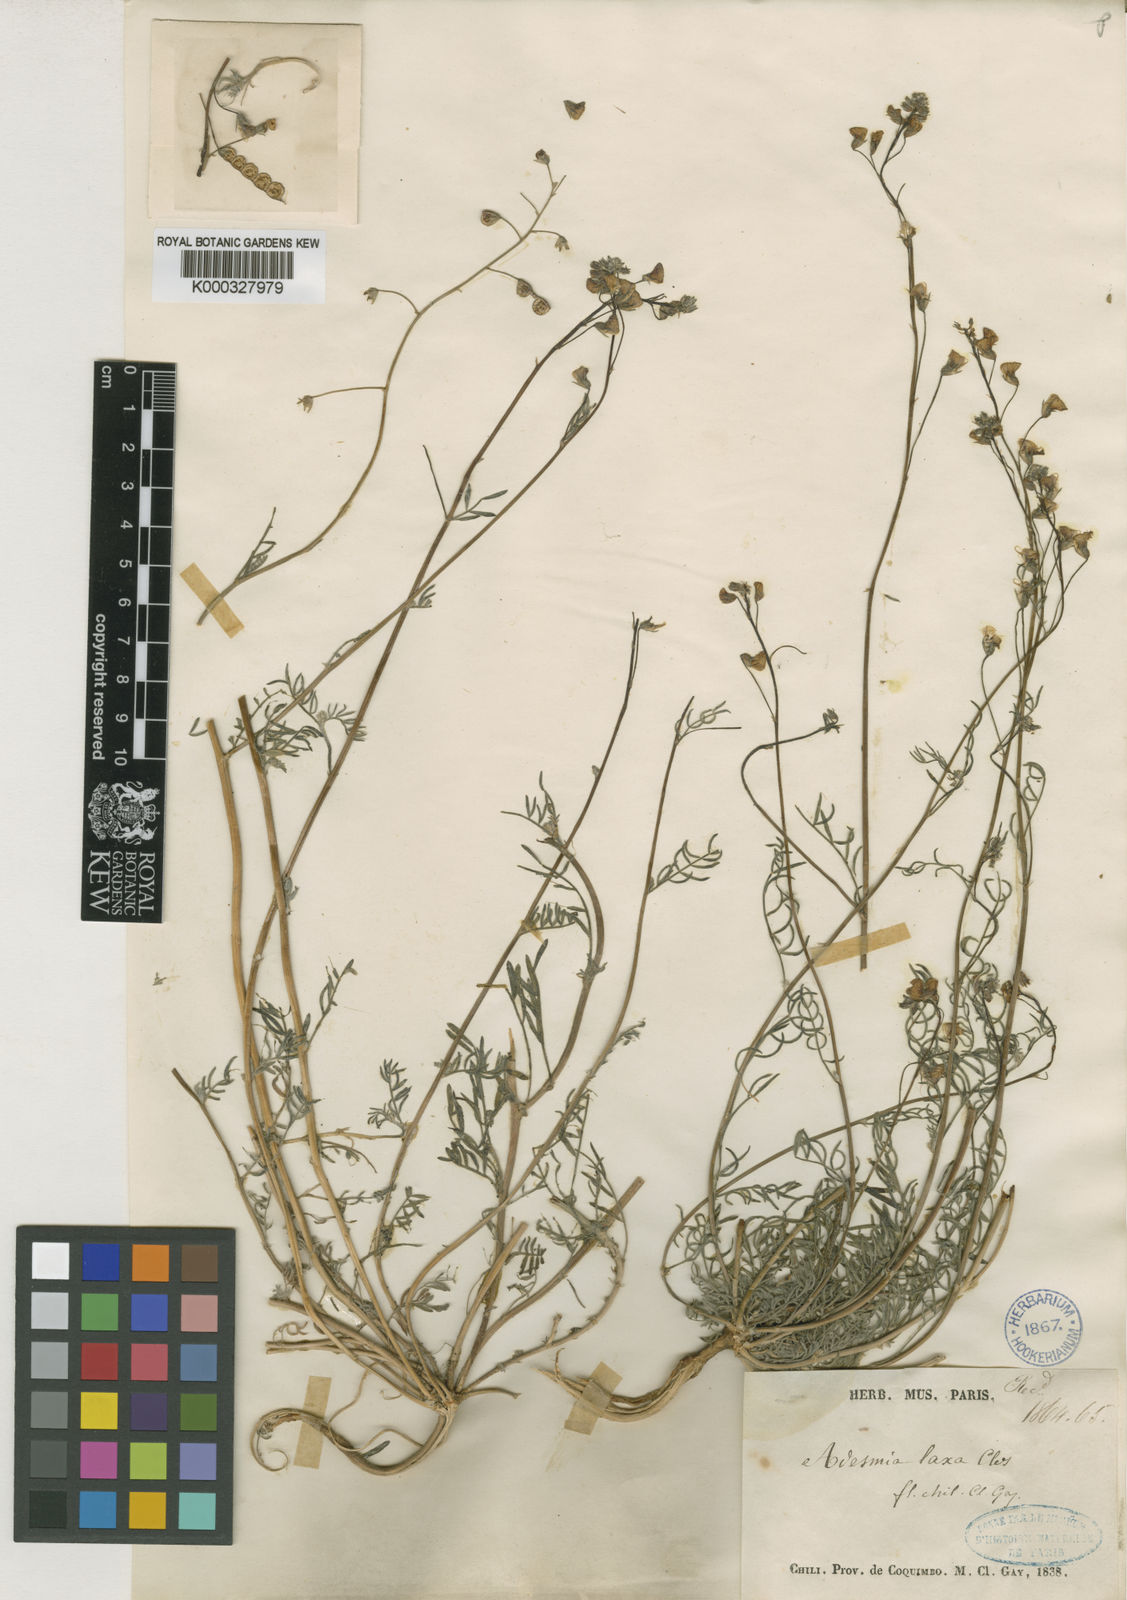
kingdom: Plantae
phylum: Tracheophyta
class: Magnoliopsida
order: Fabales
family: Fabaceae
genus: Adesmia
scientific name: Adesmia laxa
